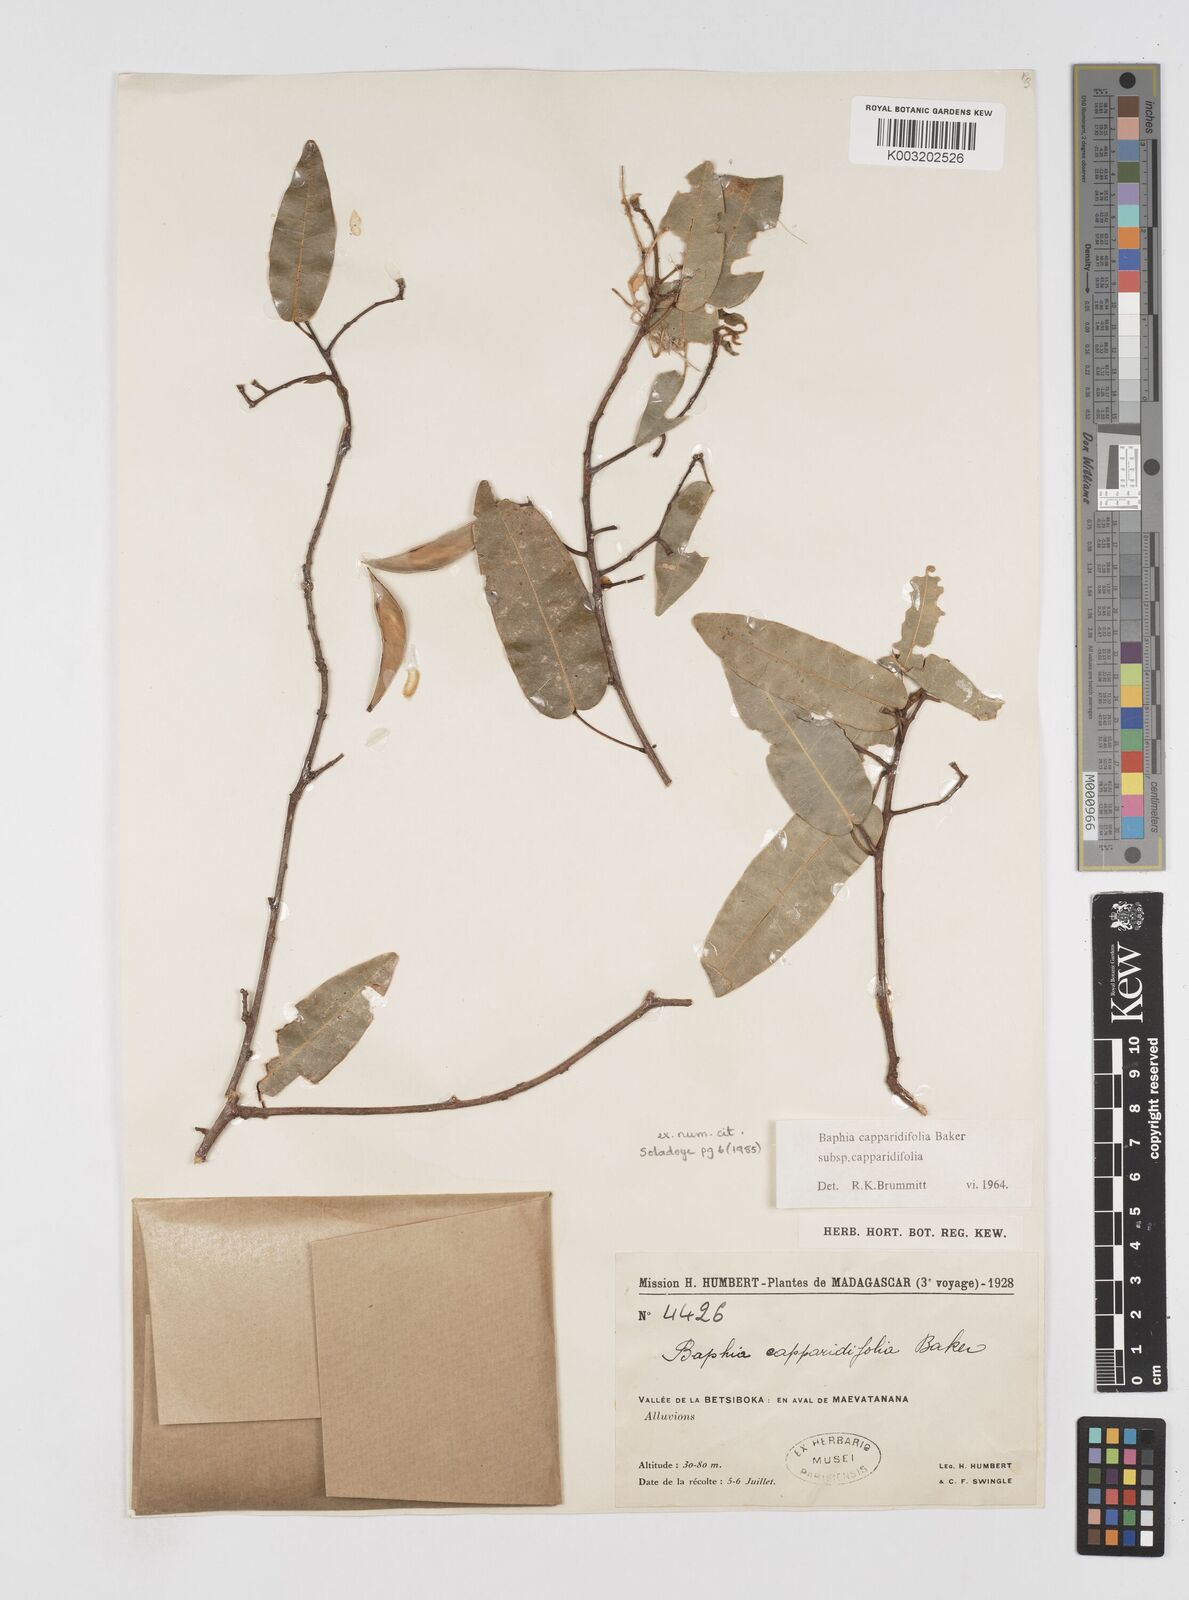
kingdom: Plantae
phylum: Tracheophyta
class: Magnoliopsida
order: Fabales
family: Fabaceae
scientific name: Fabaceae
